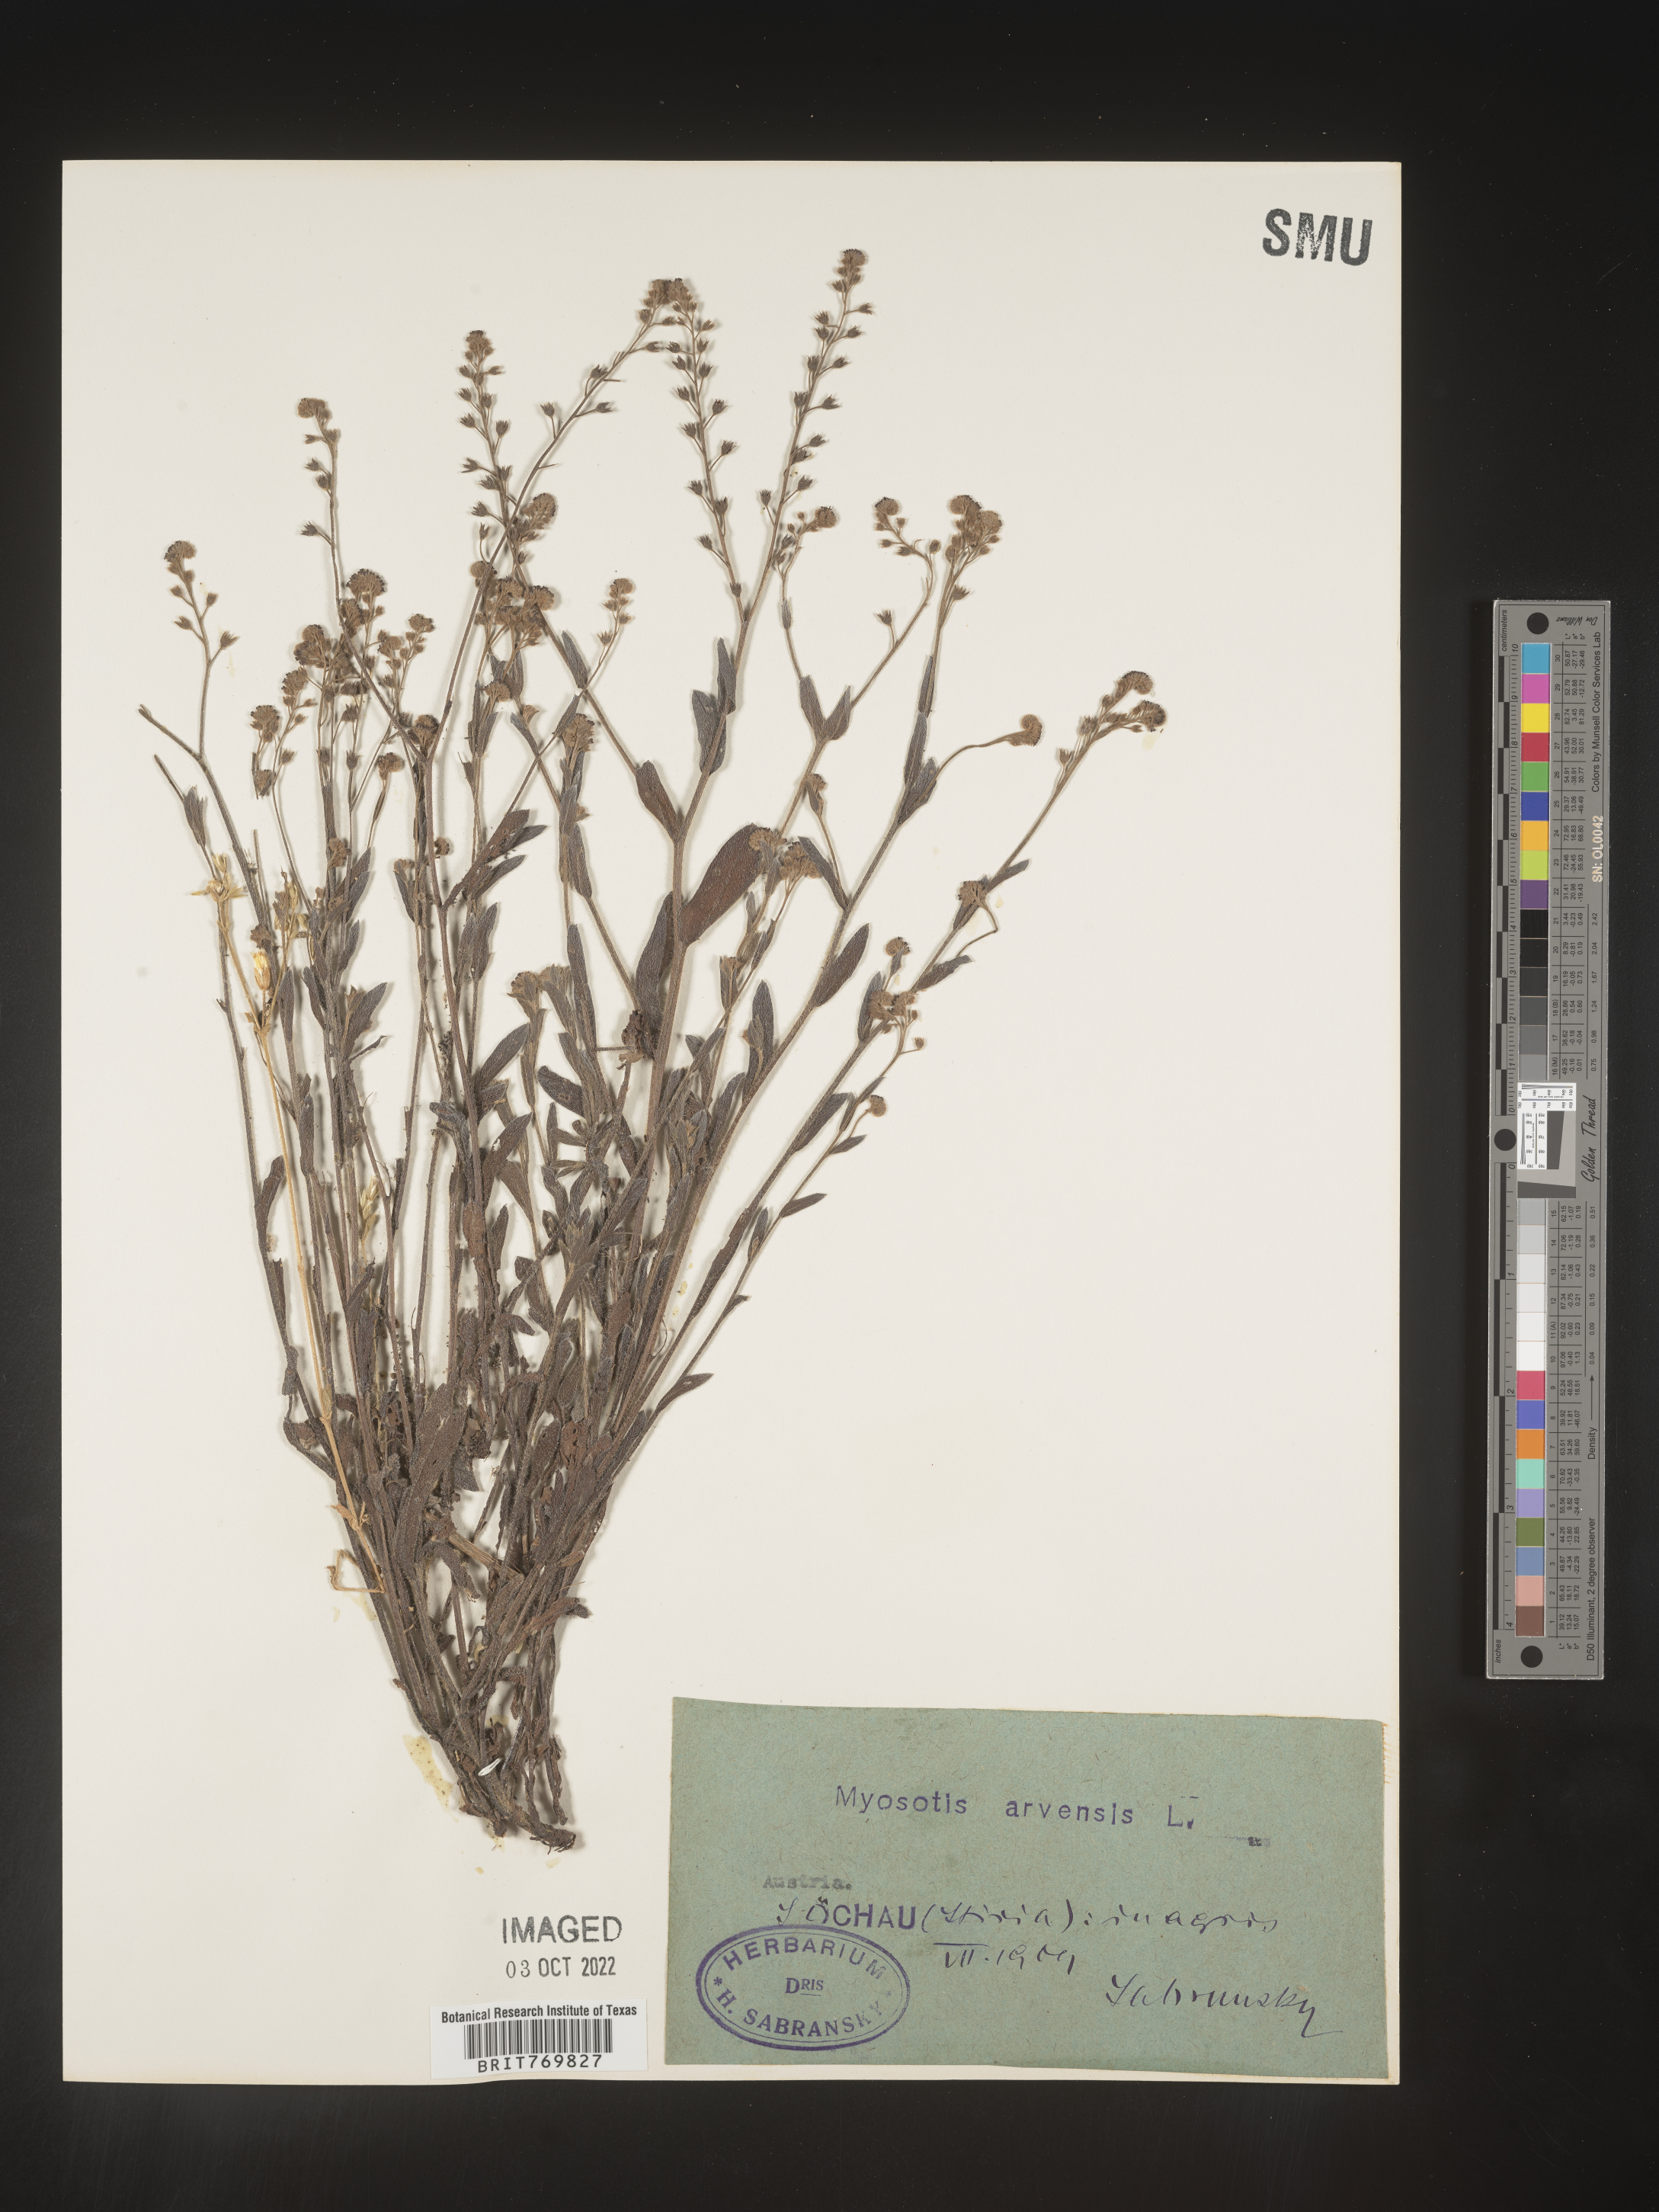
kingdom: Plantae
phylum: Tracheophyta
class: Magnoliopsida
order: Boraginales
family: Boraginaceae
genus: Myosotis
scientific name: Myosotis
